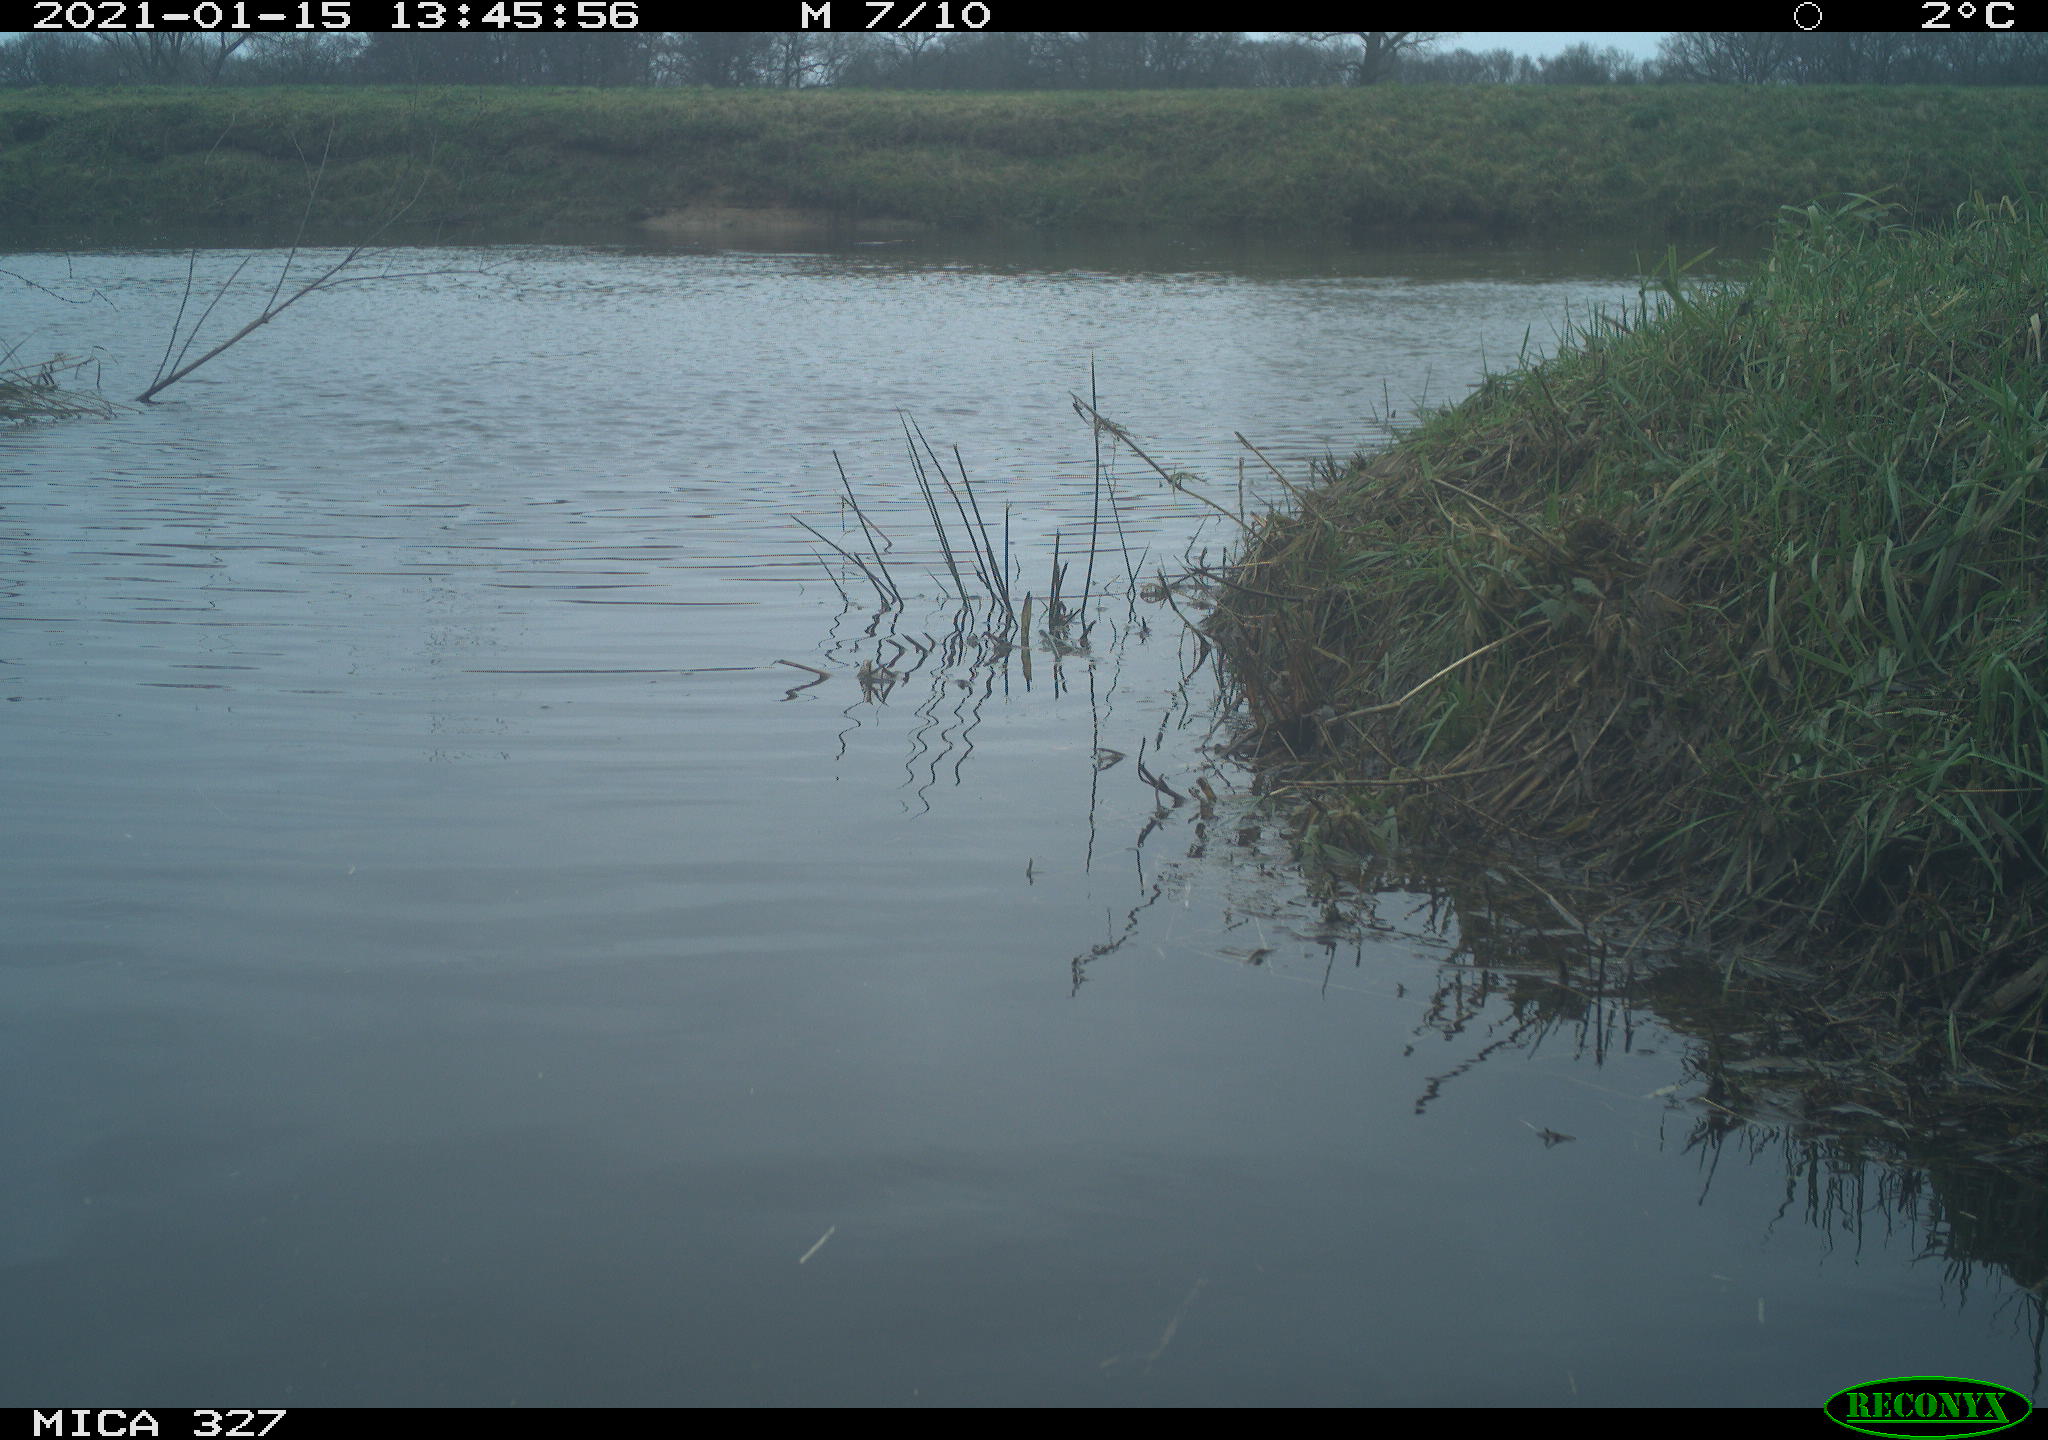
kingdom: Animalia
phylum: Chordata
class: Aves
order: Pelecaniformes
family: Ardeidae
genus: Ardea
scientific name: Ardea alba
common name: Great egret
